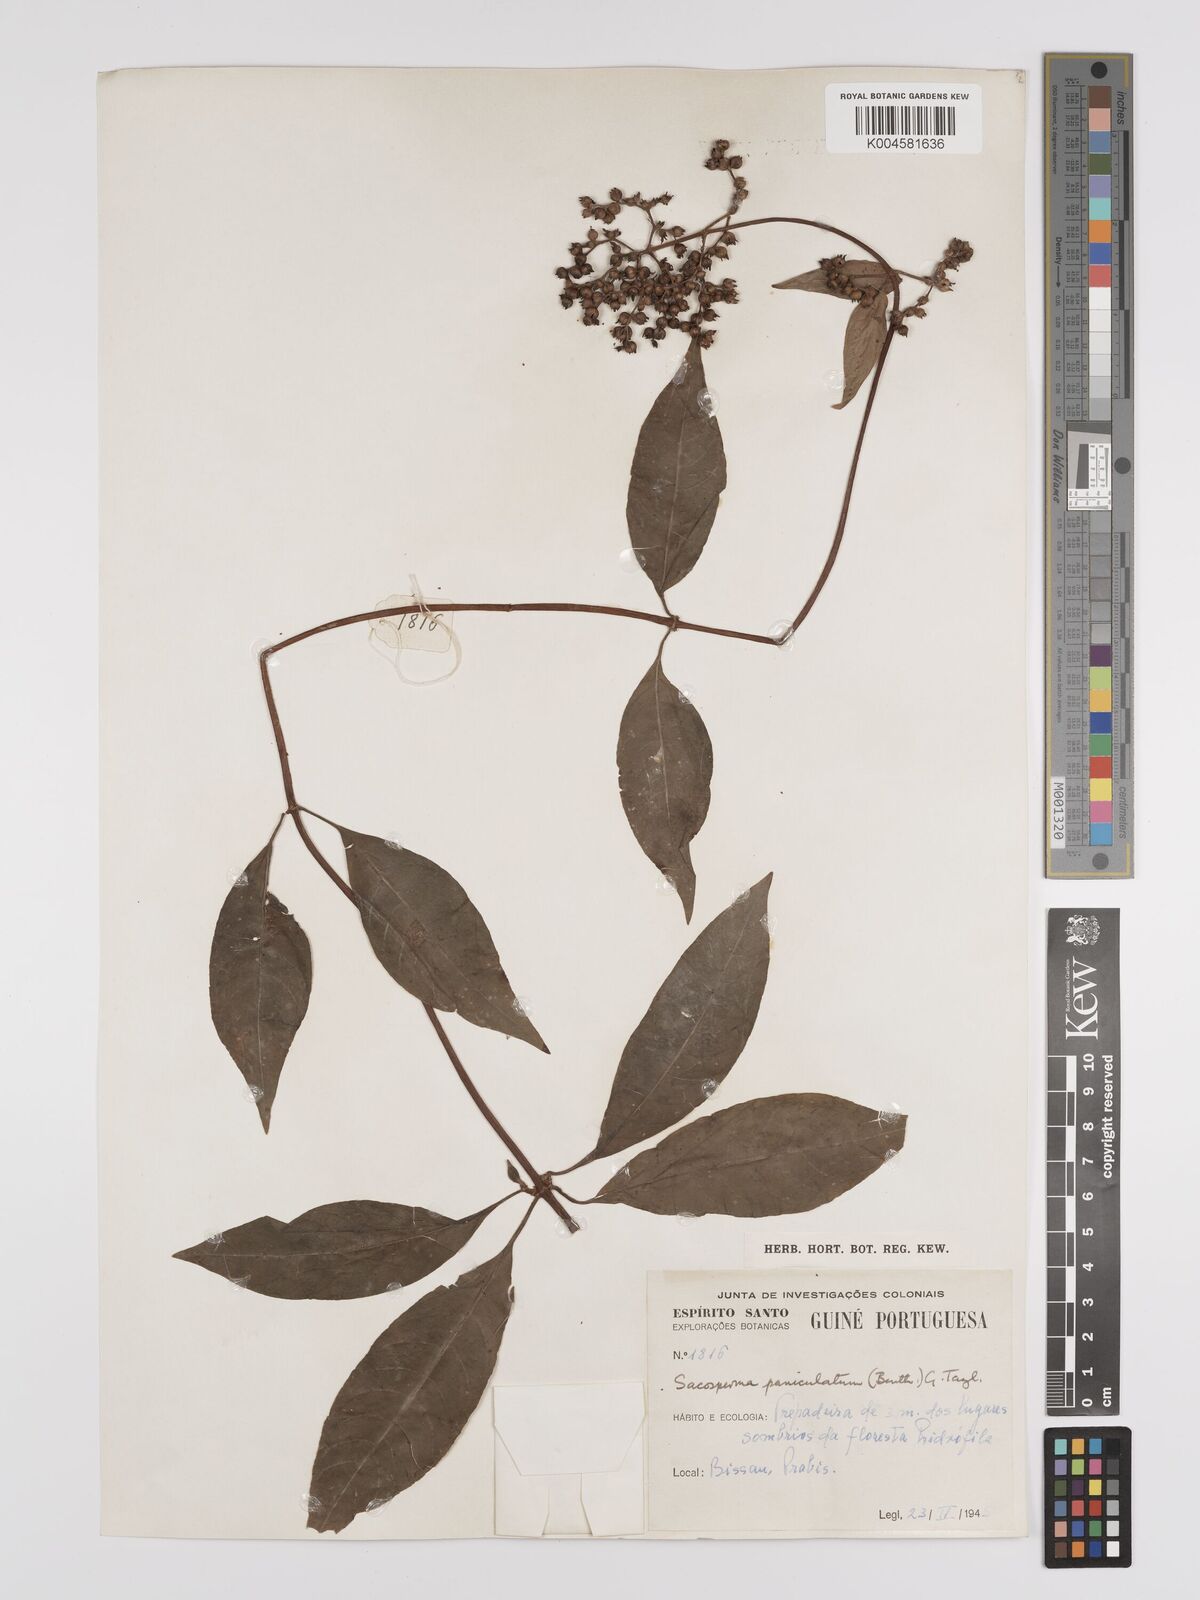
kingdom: Plantae
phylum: Tracheophyta
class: Magnoliopsida
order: Gentianales
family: Rubiaceae
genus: Sacosperma
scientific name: Sacosperma paniculatum
